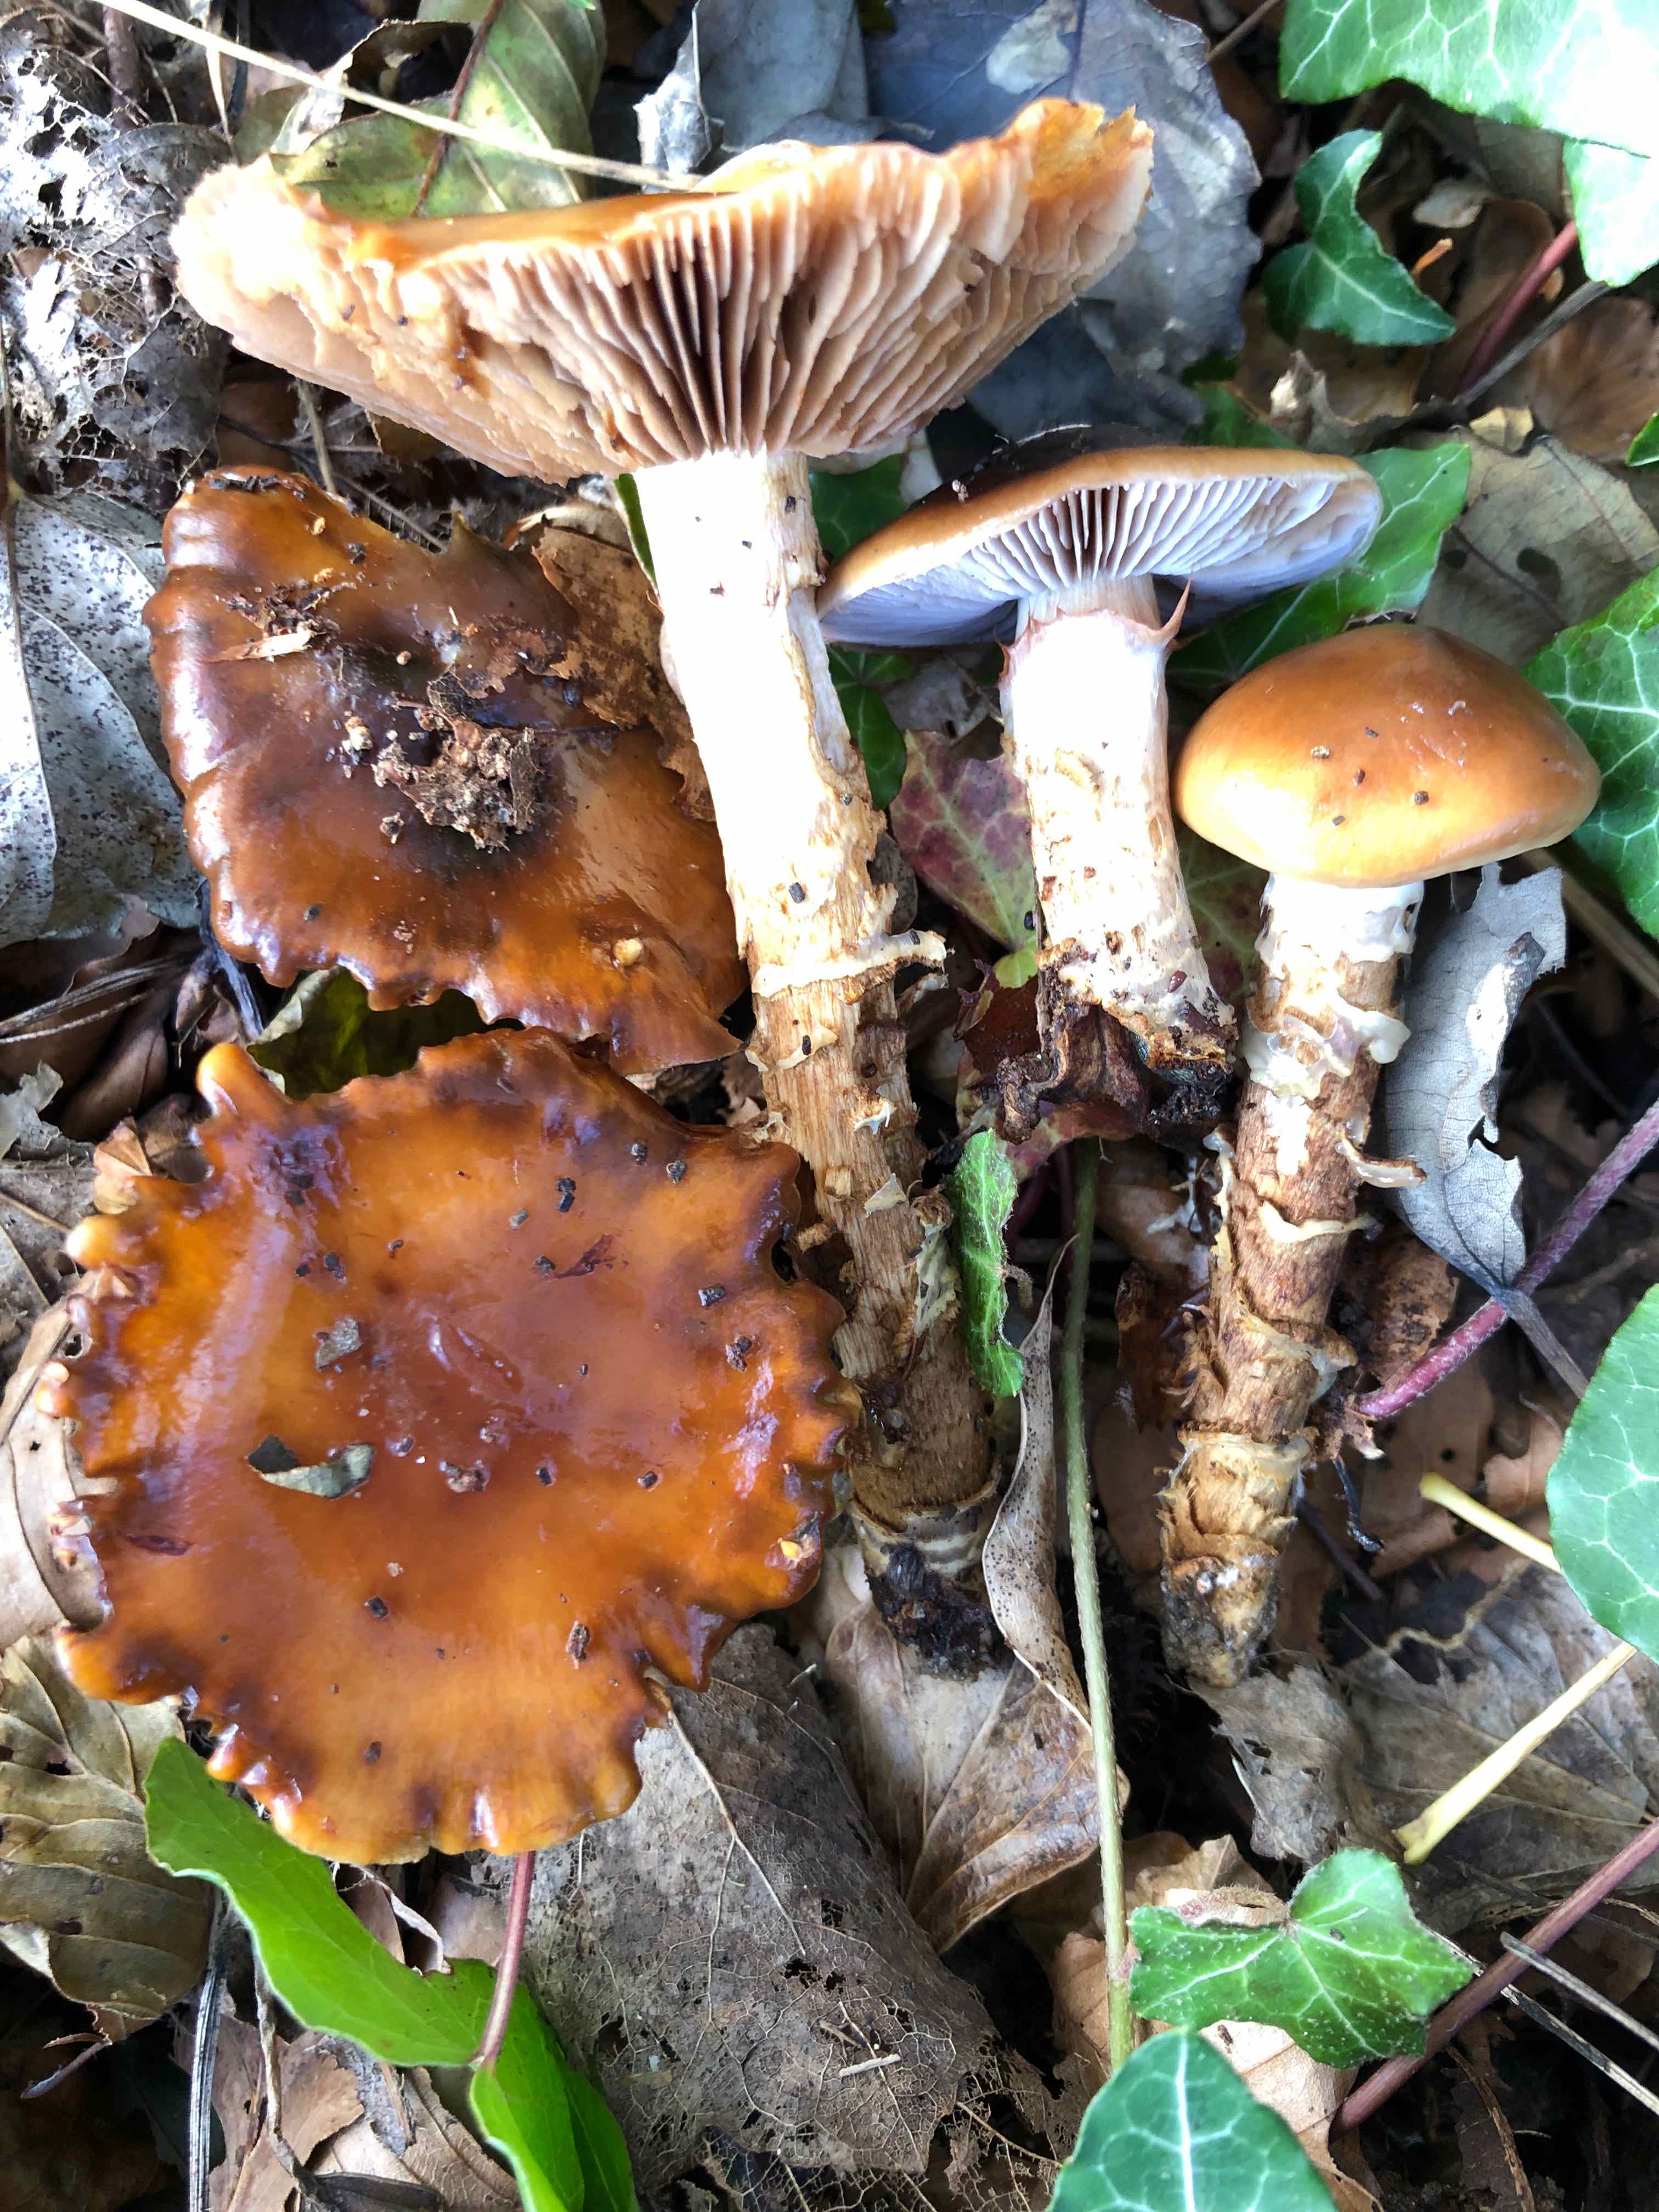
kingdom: Fungi
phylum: Basidiomycota
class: Agaricomycetes
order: Agaricales
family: Cortinariaceae
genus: Cortinarius
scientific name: Cortinarius trivialis
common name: Girdled webcap
